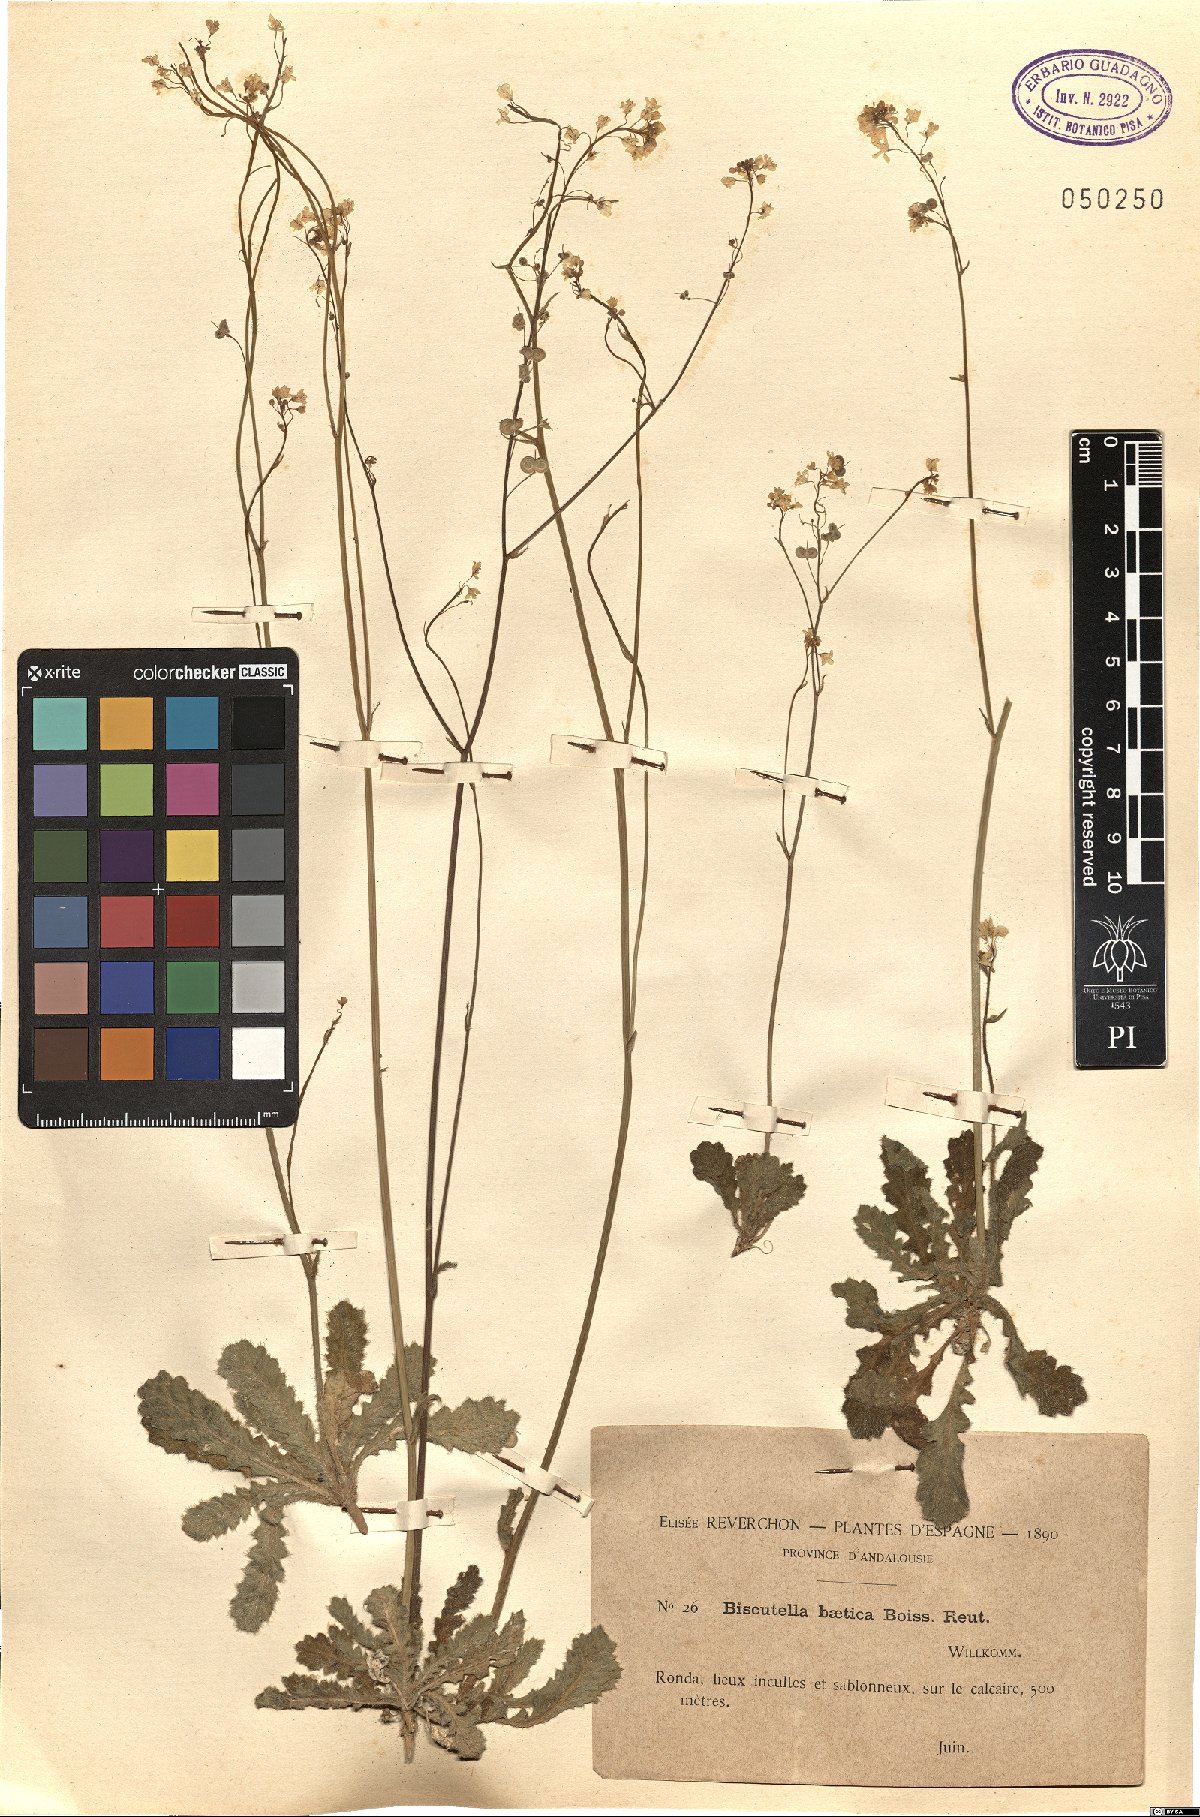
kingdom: Plantae
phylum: Tracheophyta
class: Magnoliopsida
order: Brassicales
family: Brassicaceae
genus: Biscutella
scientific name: Biscutella baetica
